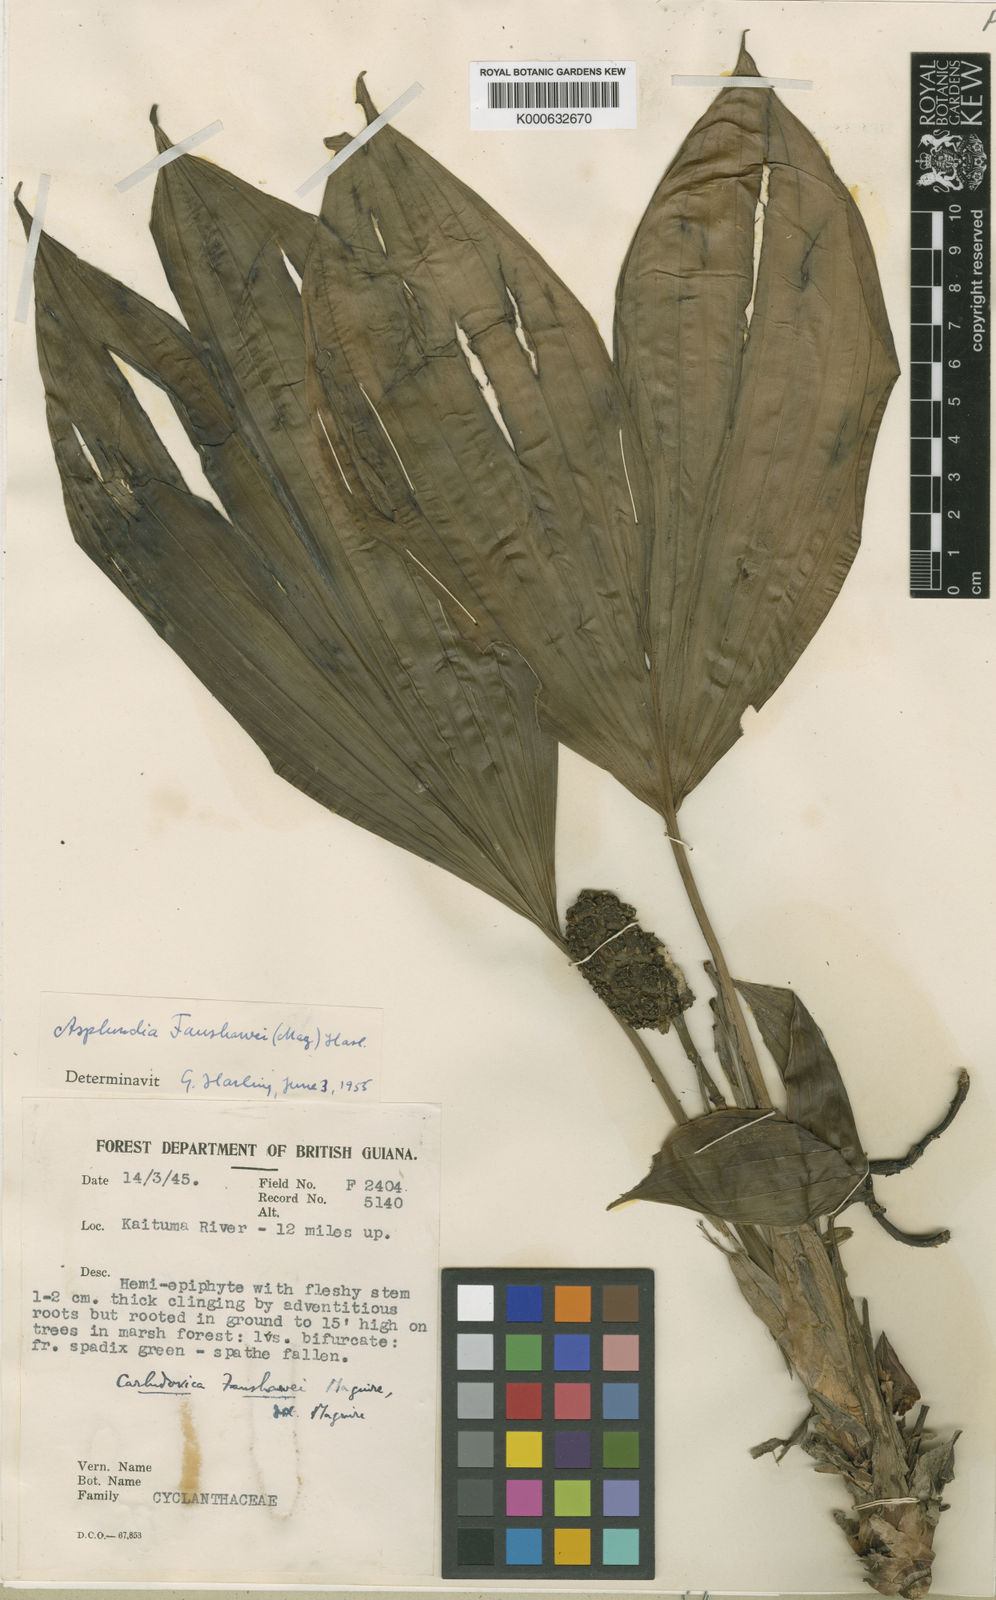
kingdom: Plantae
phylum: Tracheophyta
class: Liliopsida
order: Pandanales
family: Cyclanthaceae
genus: Asplundia
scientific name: Asplundia fanshawei
